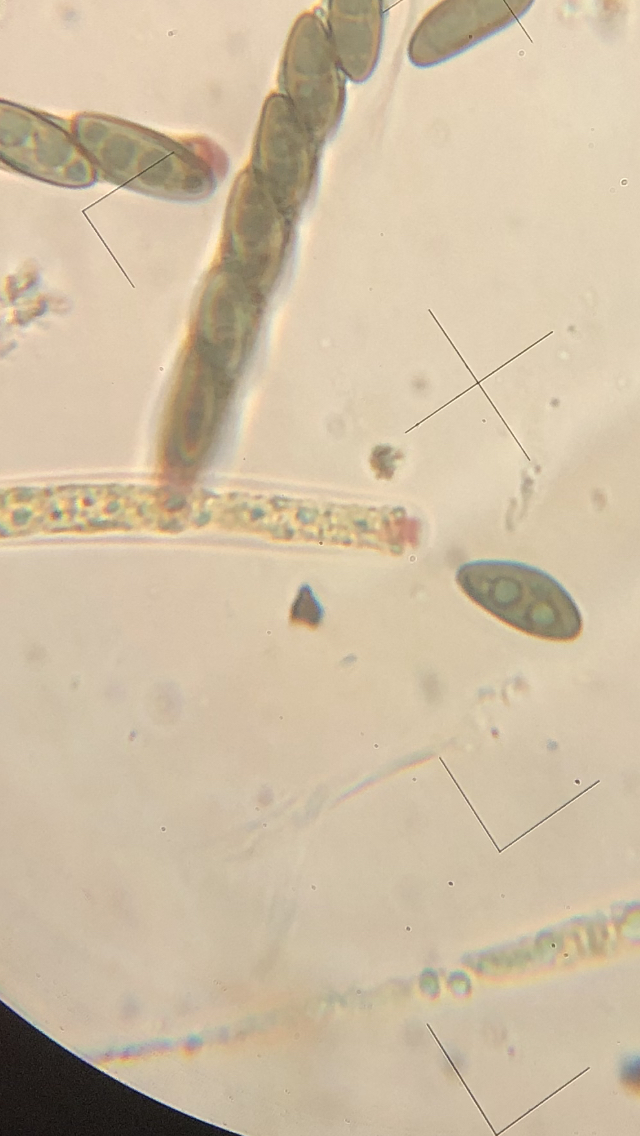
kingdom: Fungi
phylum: Ascomycota
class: Sordariomycetes
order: Xylariales
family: Xylariaceae
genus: Nemania
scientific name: Nemania serpens
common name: almindelig kuldyne
